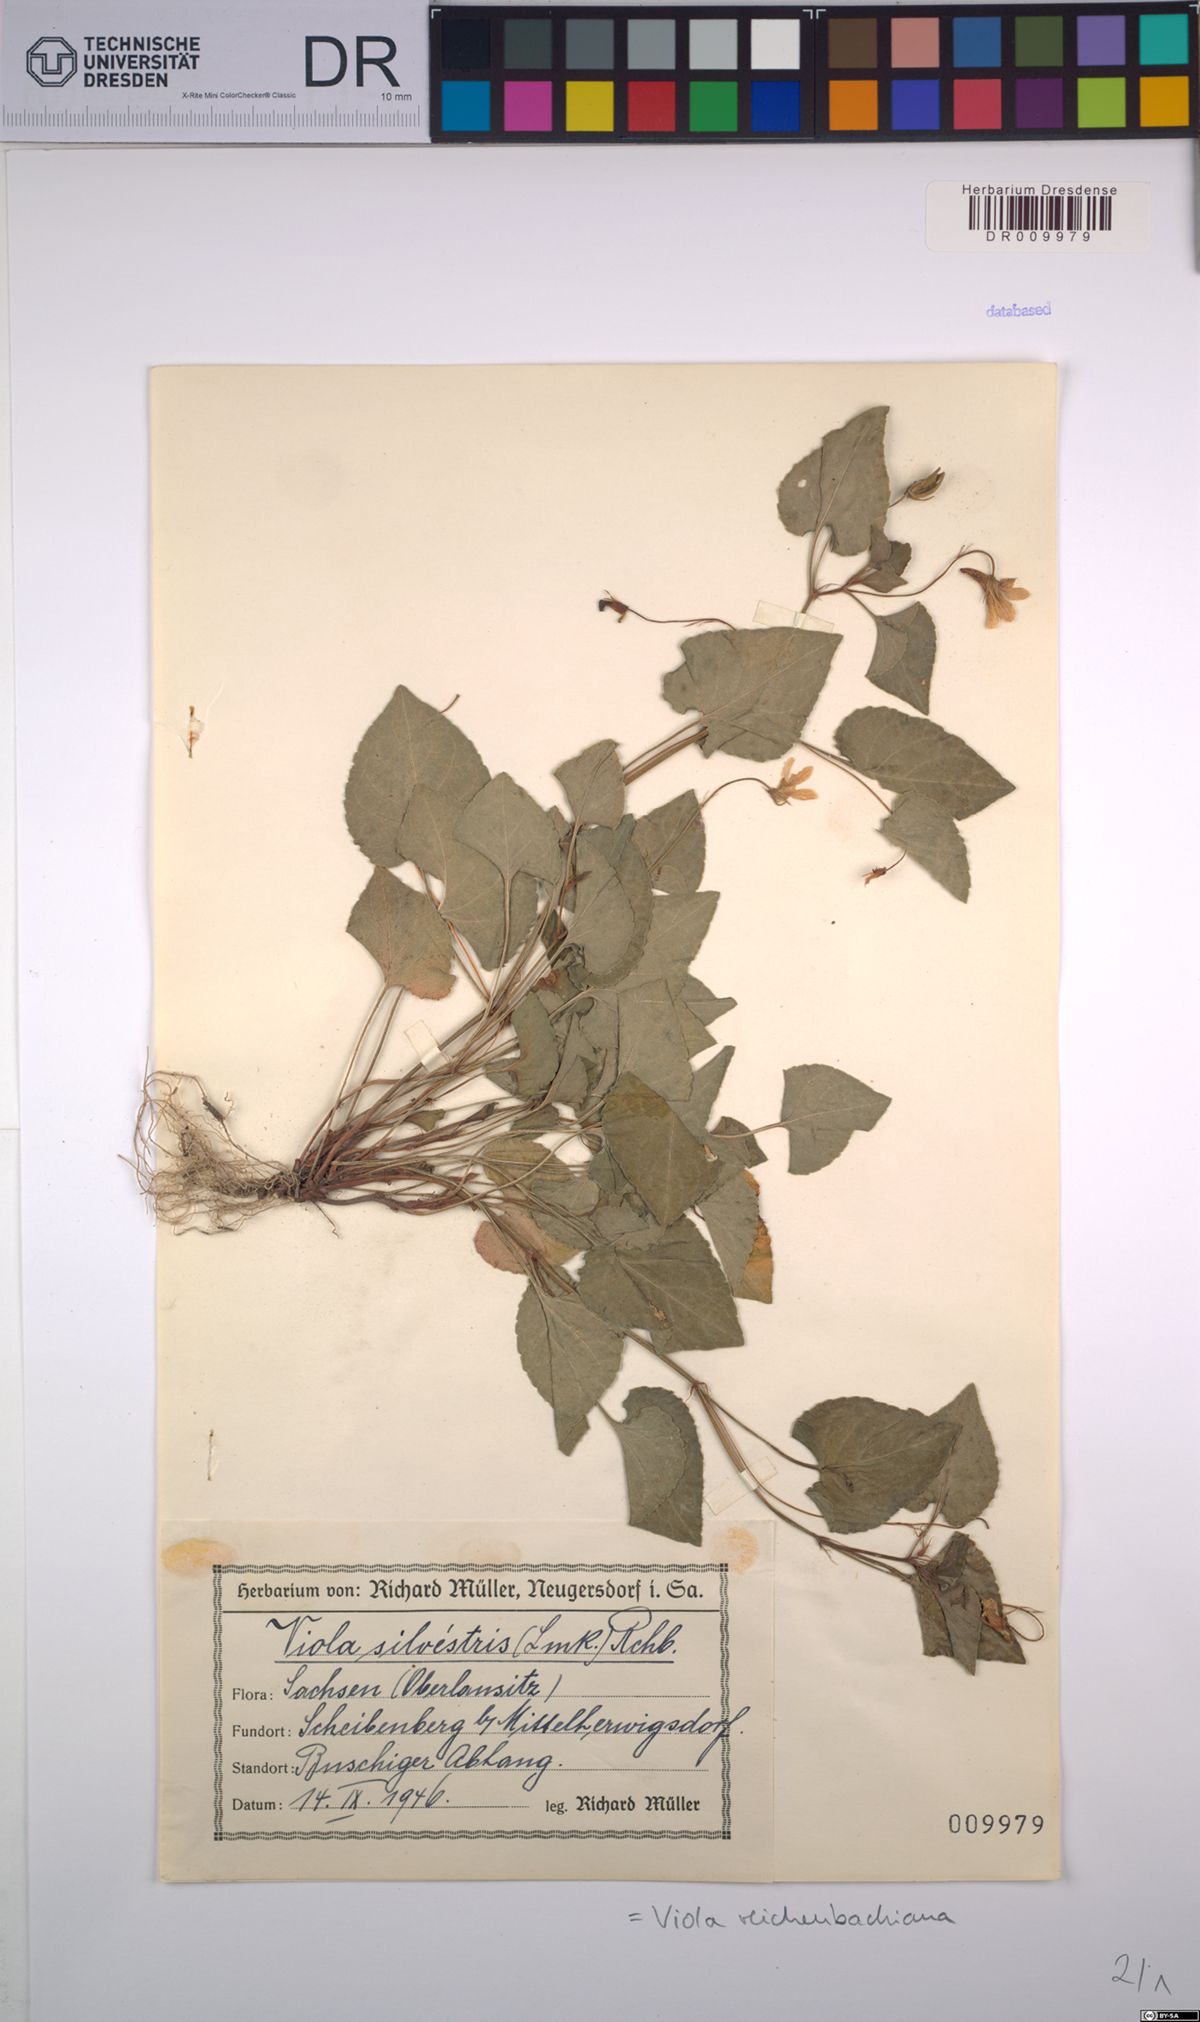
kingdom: Plantae
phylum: Tracheophyta
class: Magnoliopsida
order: Malpighiales
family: Violaceae
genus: Viola
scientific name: Viola reichenbachiana
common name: Early dog-violet
